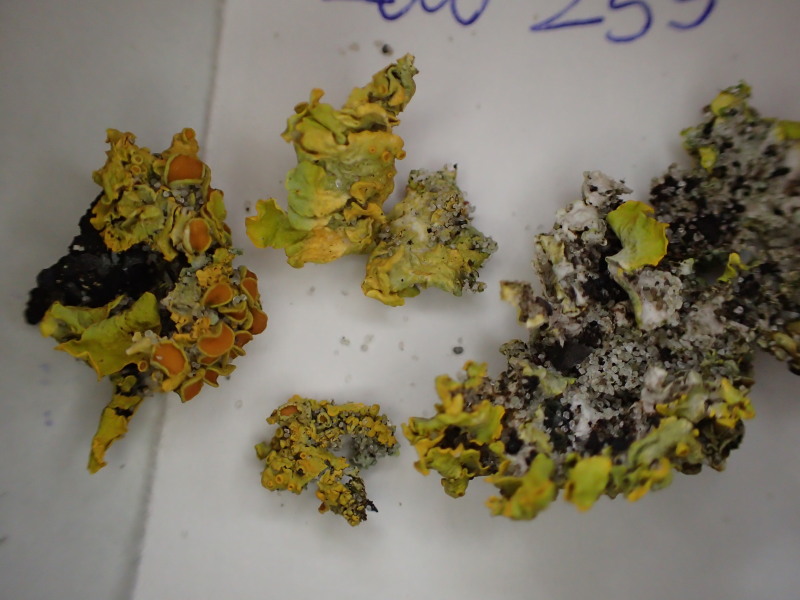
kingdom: Fungi
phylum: Ascomycota
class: Lecanoromycetes
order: Teloschistales
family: Teloschistaceae
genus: Xanthoria
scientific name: Xanthoria parietina
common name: almindelig væggelav
